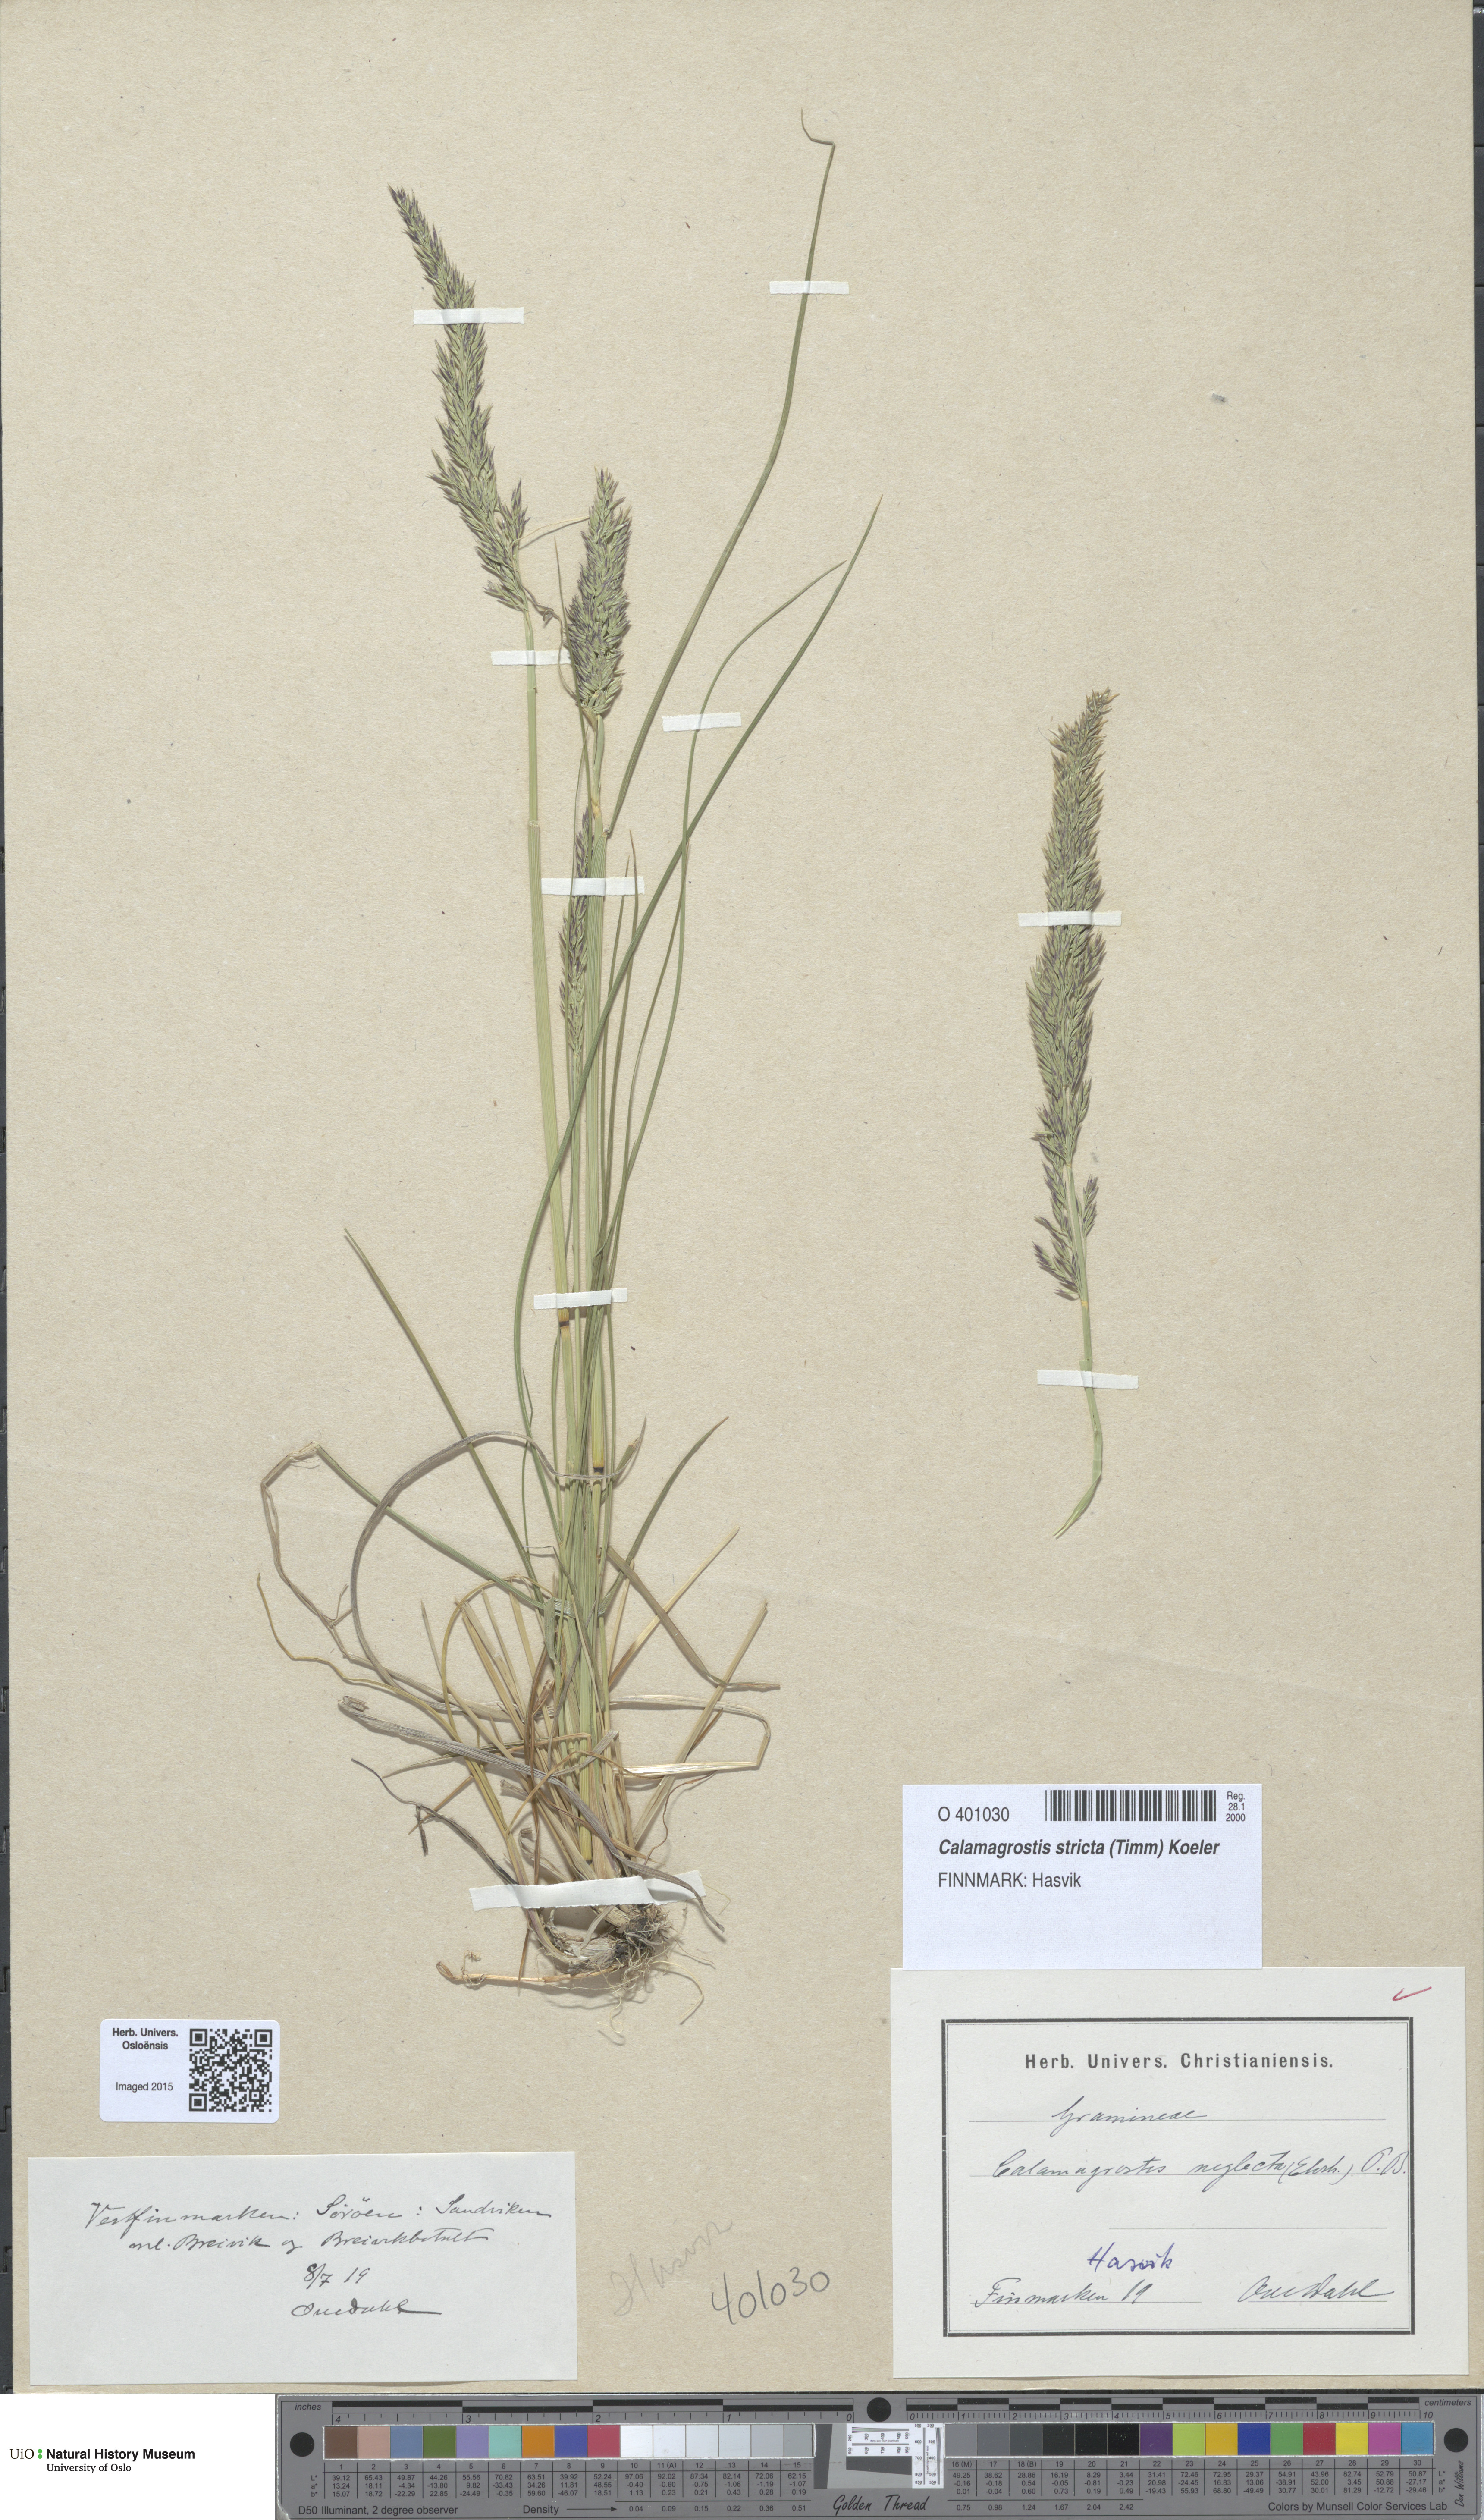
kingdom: Plantae
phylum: Tracheophyta
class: Liliopsida
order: Poales
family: Poaceae
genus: Achnatherum
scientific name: Achnatherum calamagrostis
